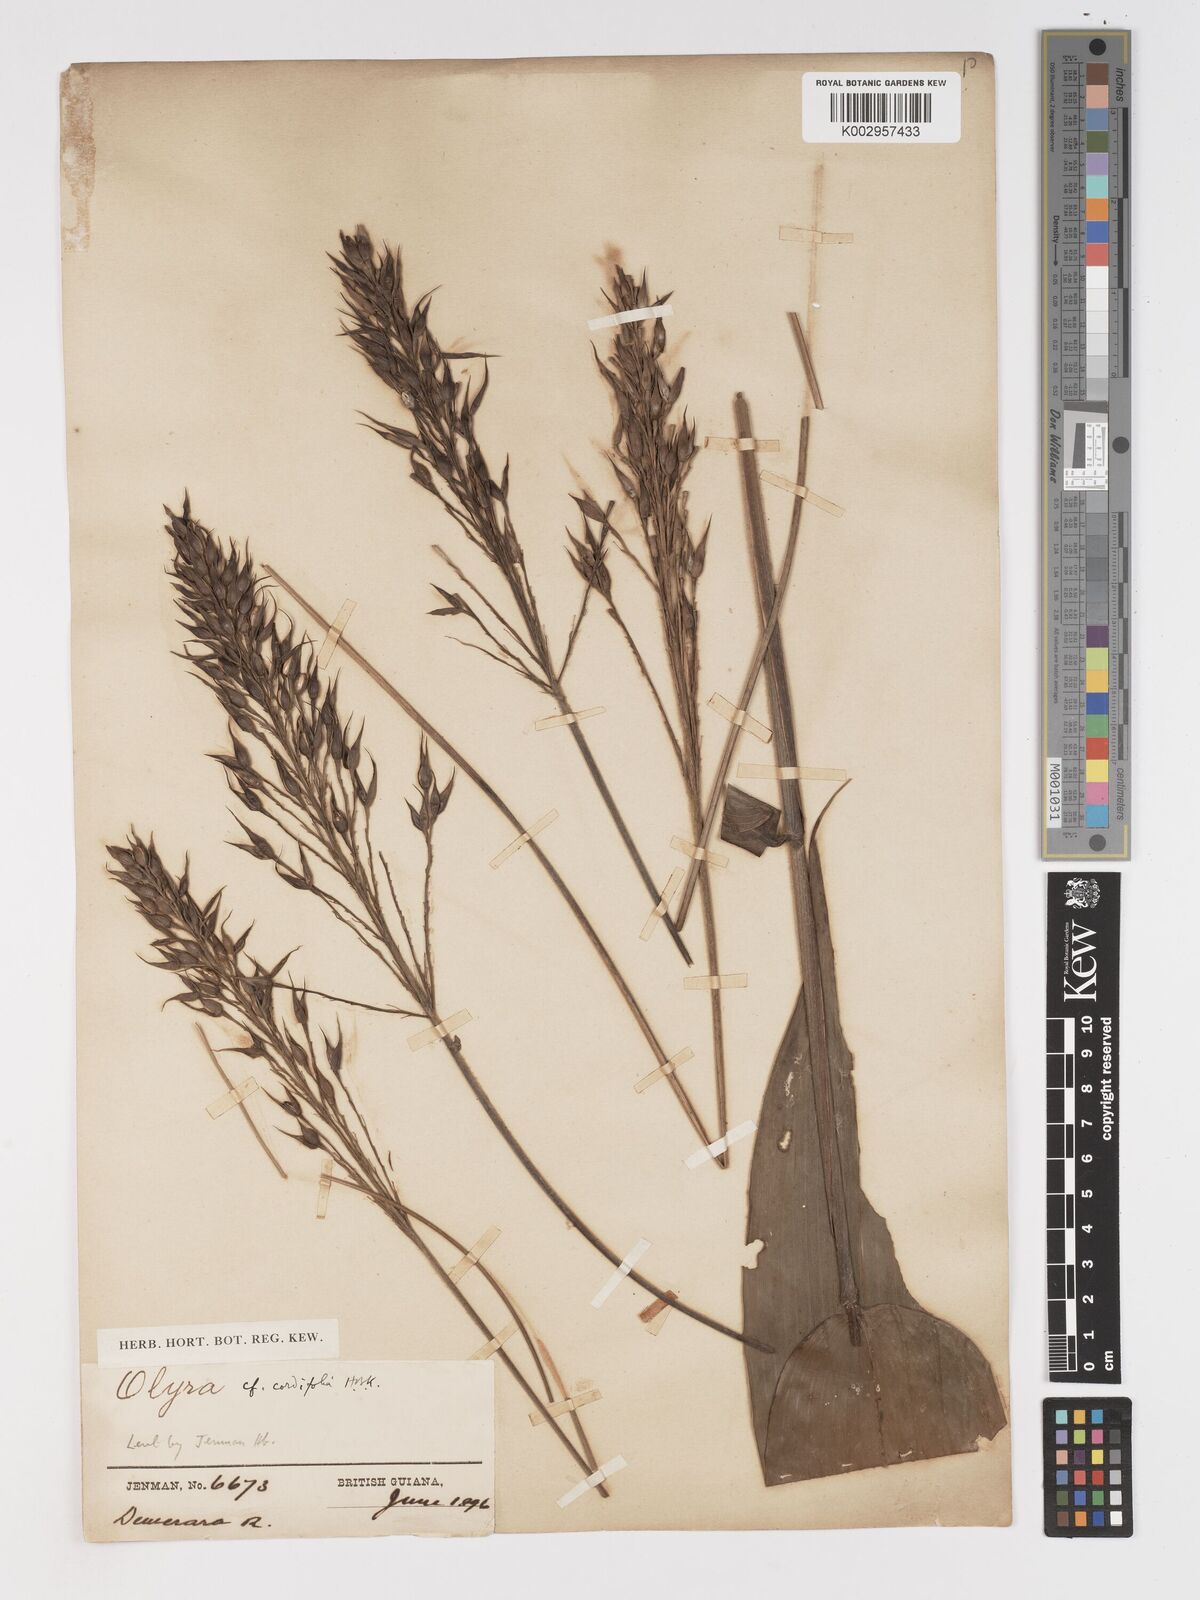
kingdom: Plantae
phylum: Tracheophyta
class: Liliopsida
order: Poales
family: Poaceae
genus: Olyra
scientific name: Olyra latifolia
